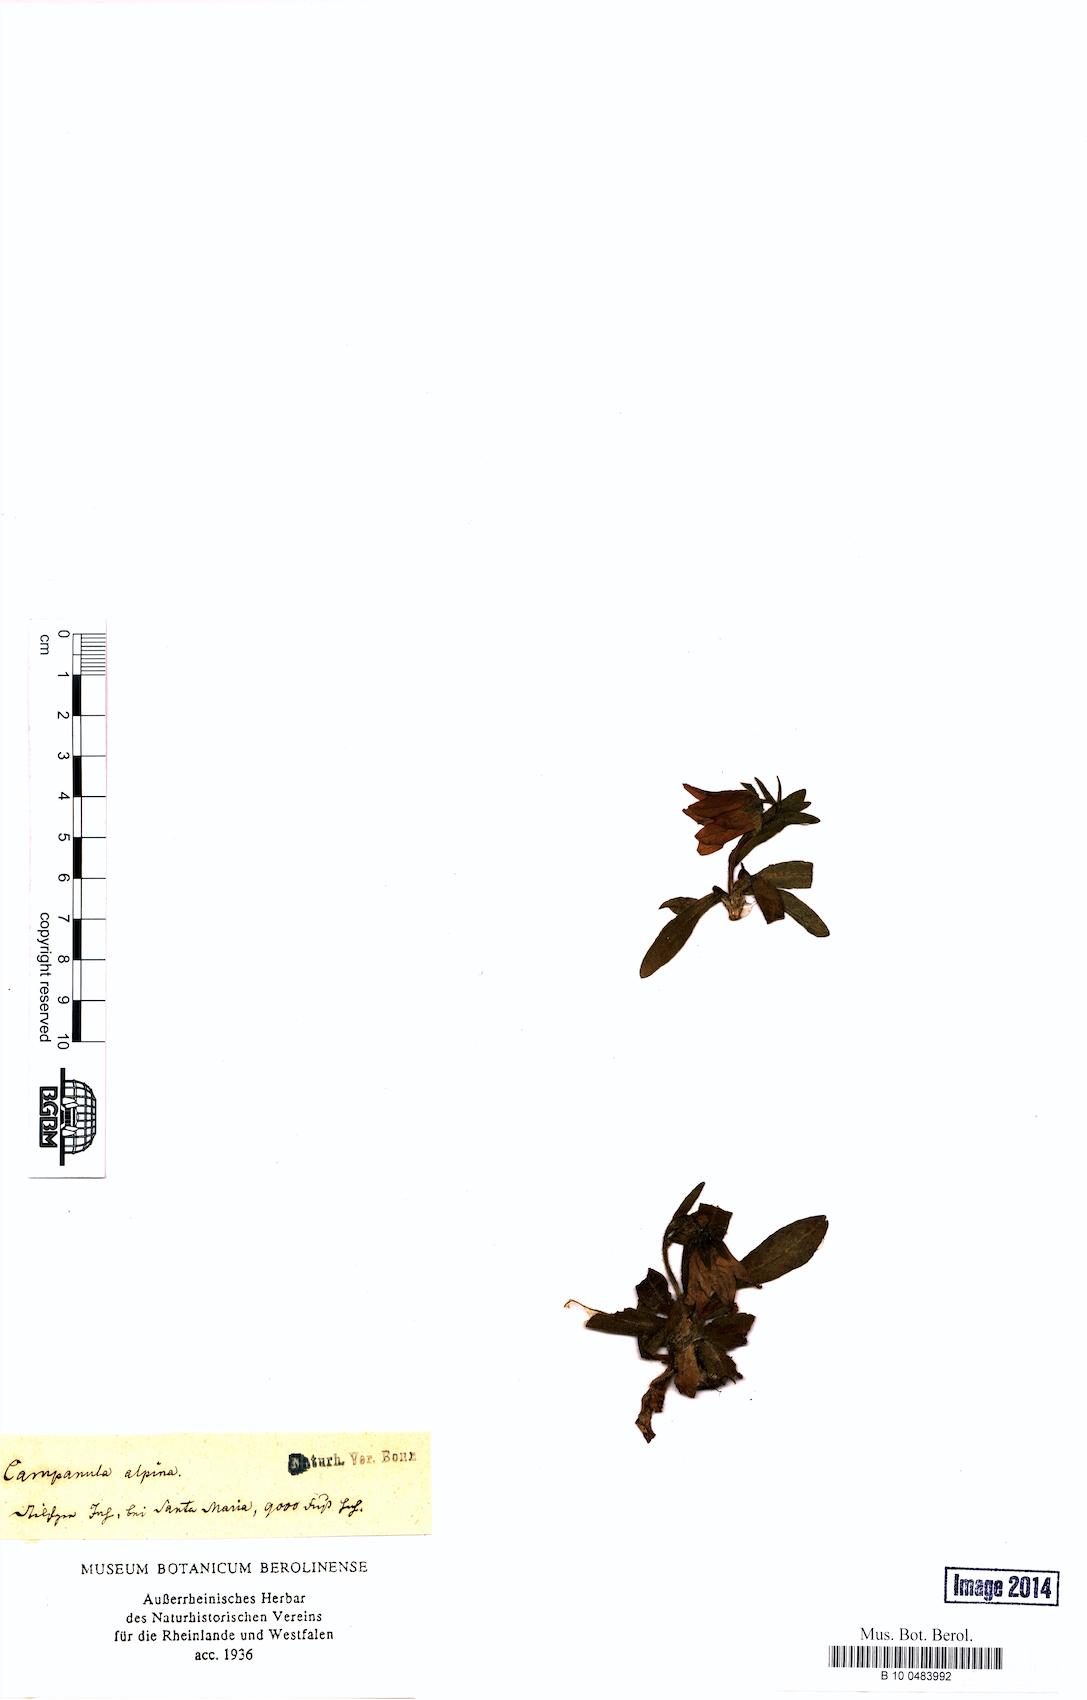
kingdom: Plantae
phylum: Tracheophyta
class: Magnoliopsida
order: Asterales
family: Campanulaceae
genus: Campanula
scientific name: Campanula alpina
